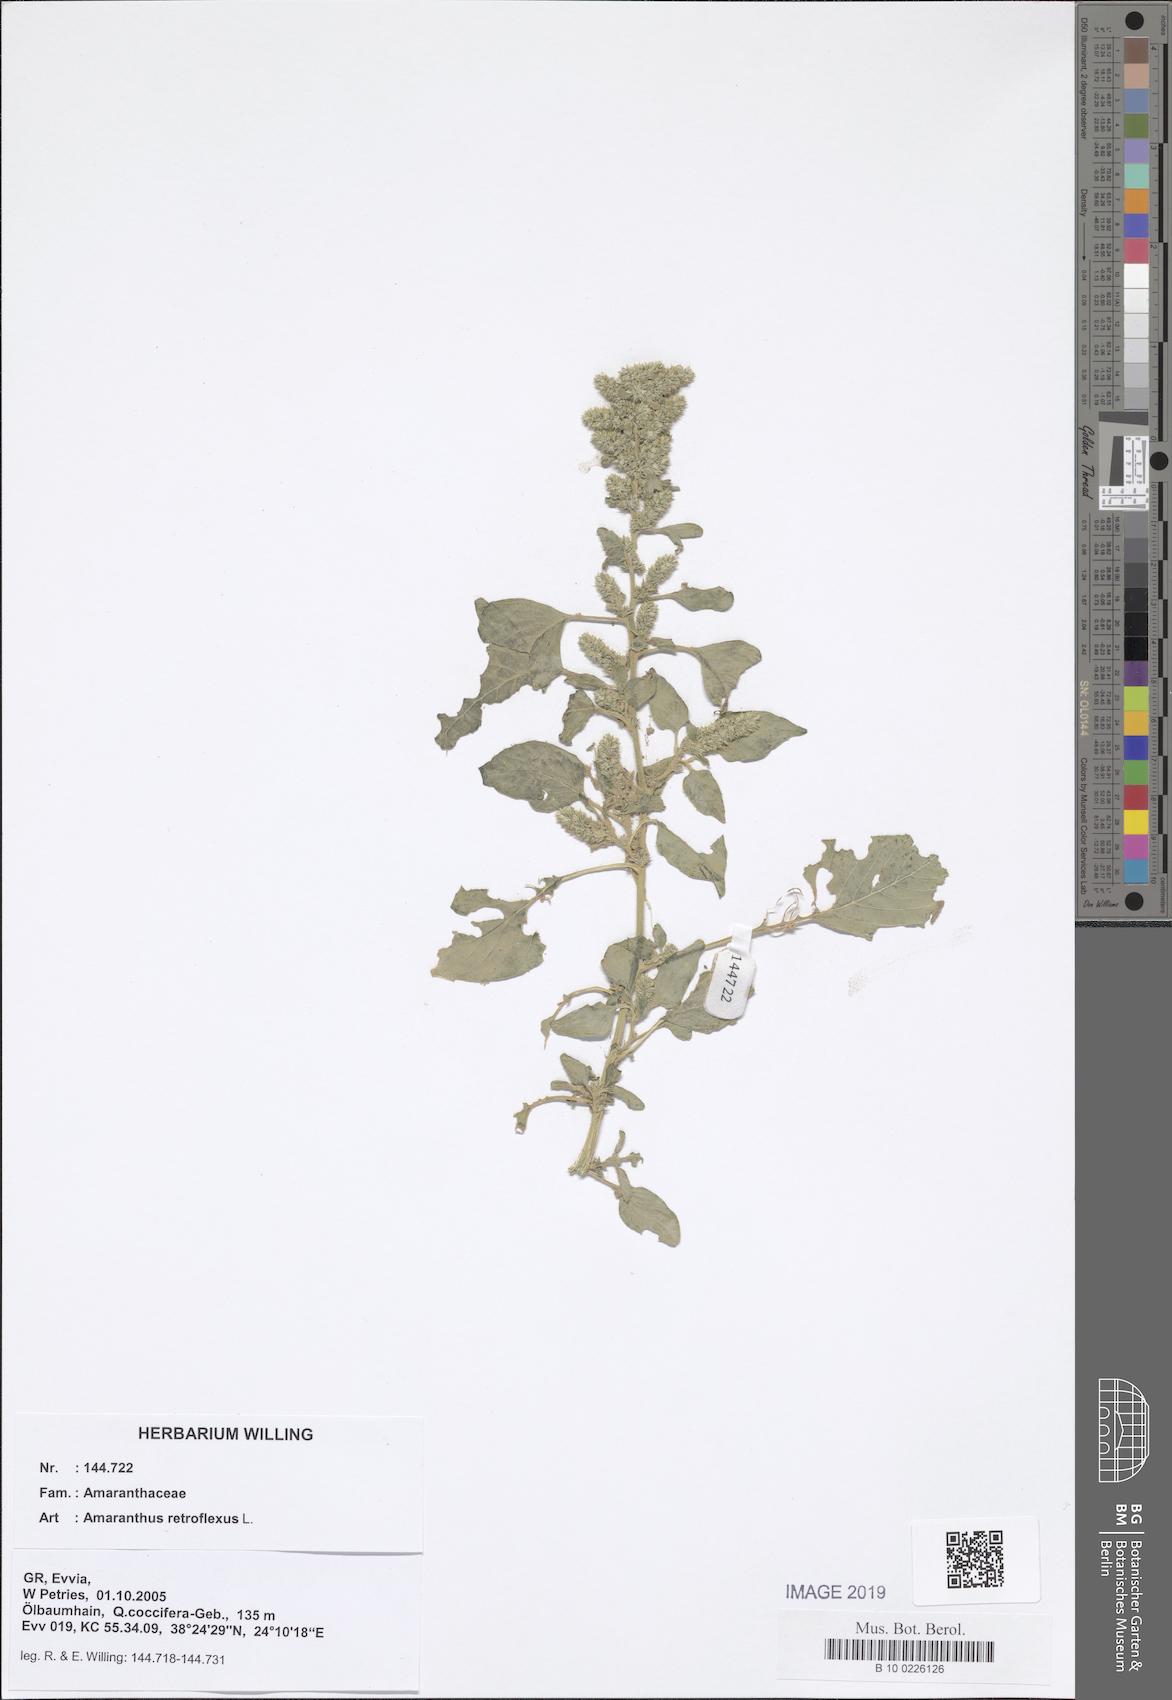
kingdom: Plantae
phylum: Tracheophyta
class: Magnoliopsida
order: Caryophyllales
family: Amaranthaceae
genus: Amaranthus
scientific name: Amaranthus retroflexus
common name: Redroot amaranth
